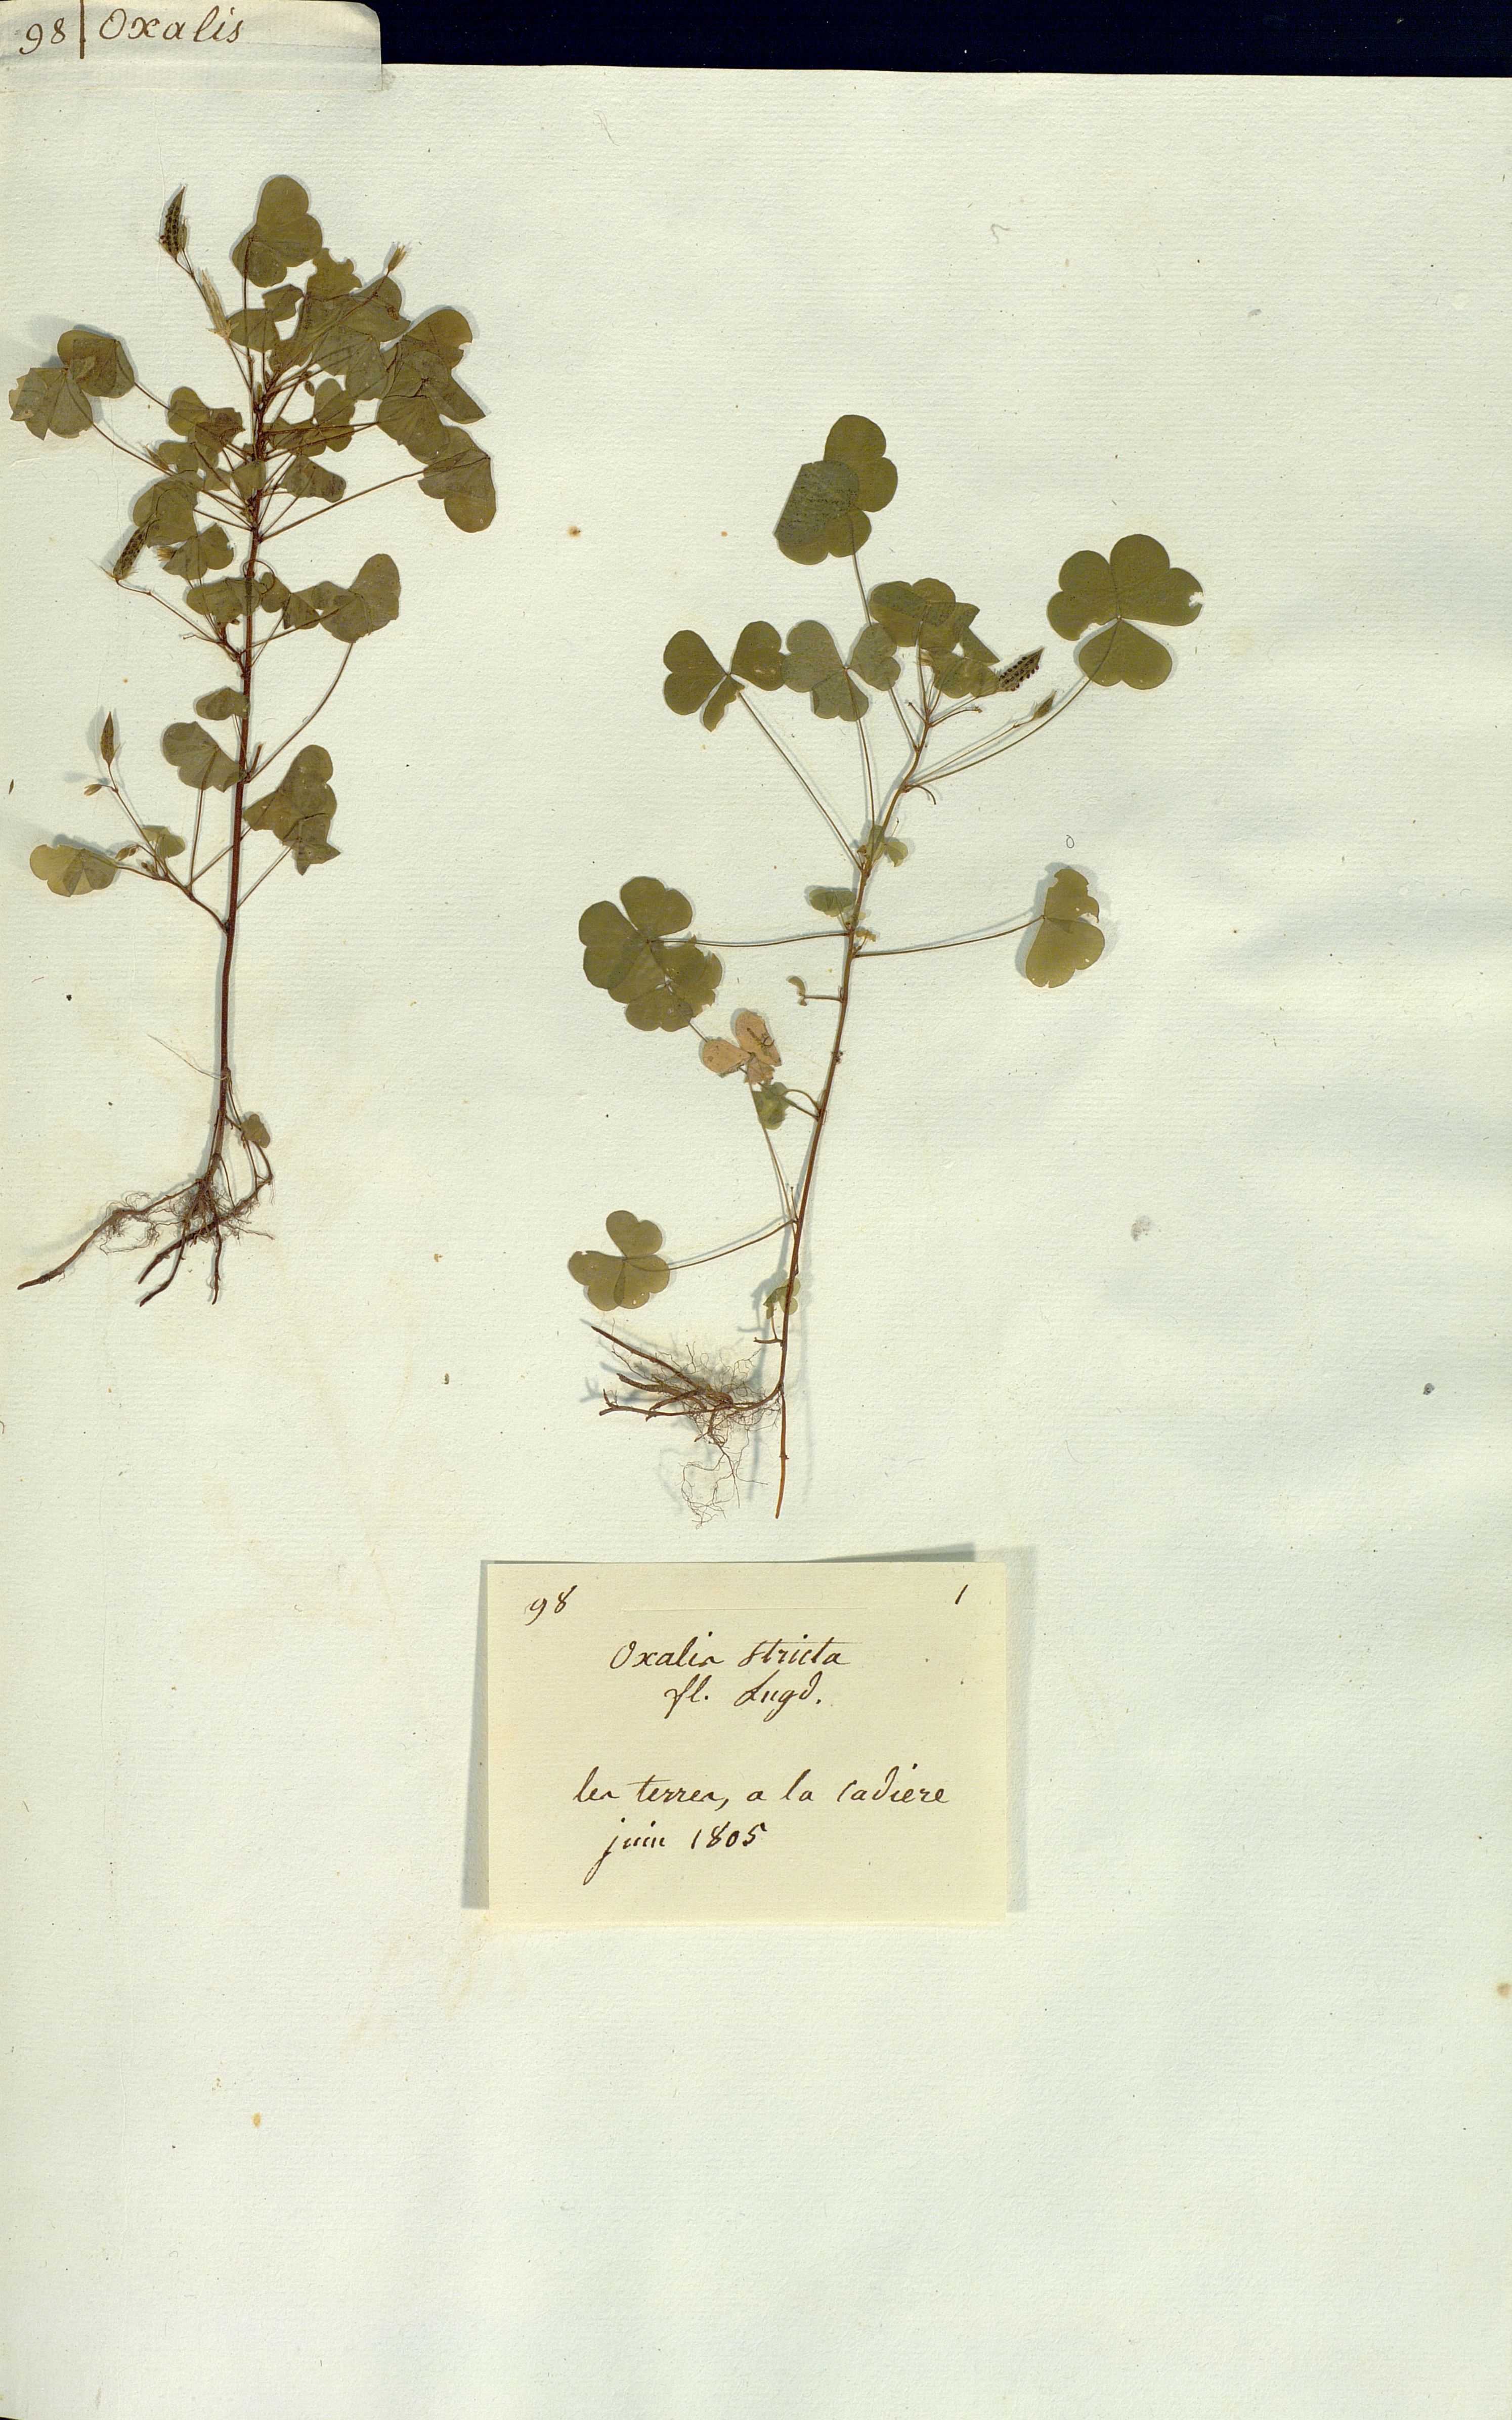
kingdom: Plantae
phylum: Tracheophyta
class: Magnoliopsida
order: Oxalidales
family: Oxalidaceae
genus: Oxalis
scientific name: Oxalis stricta
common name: Upright yellow-sorrel
